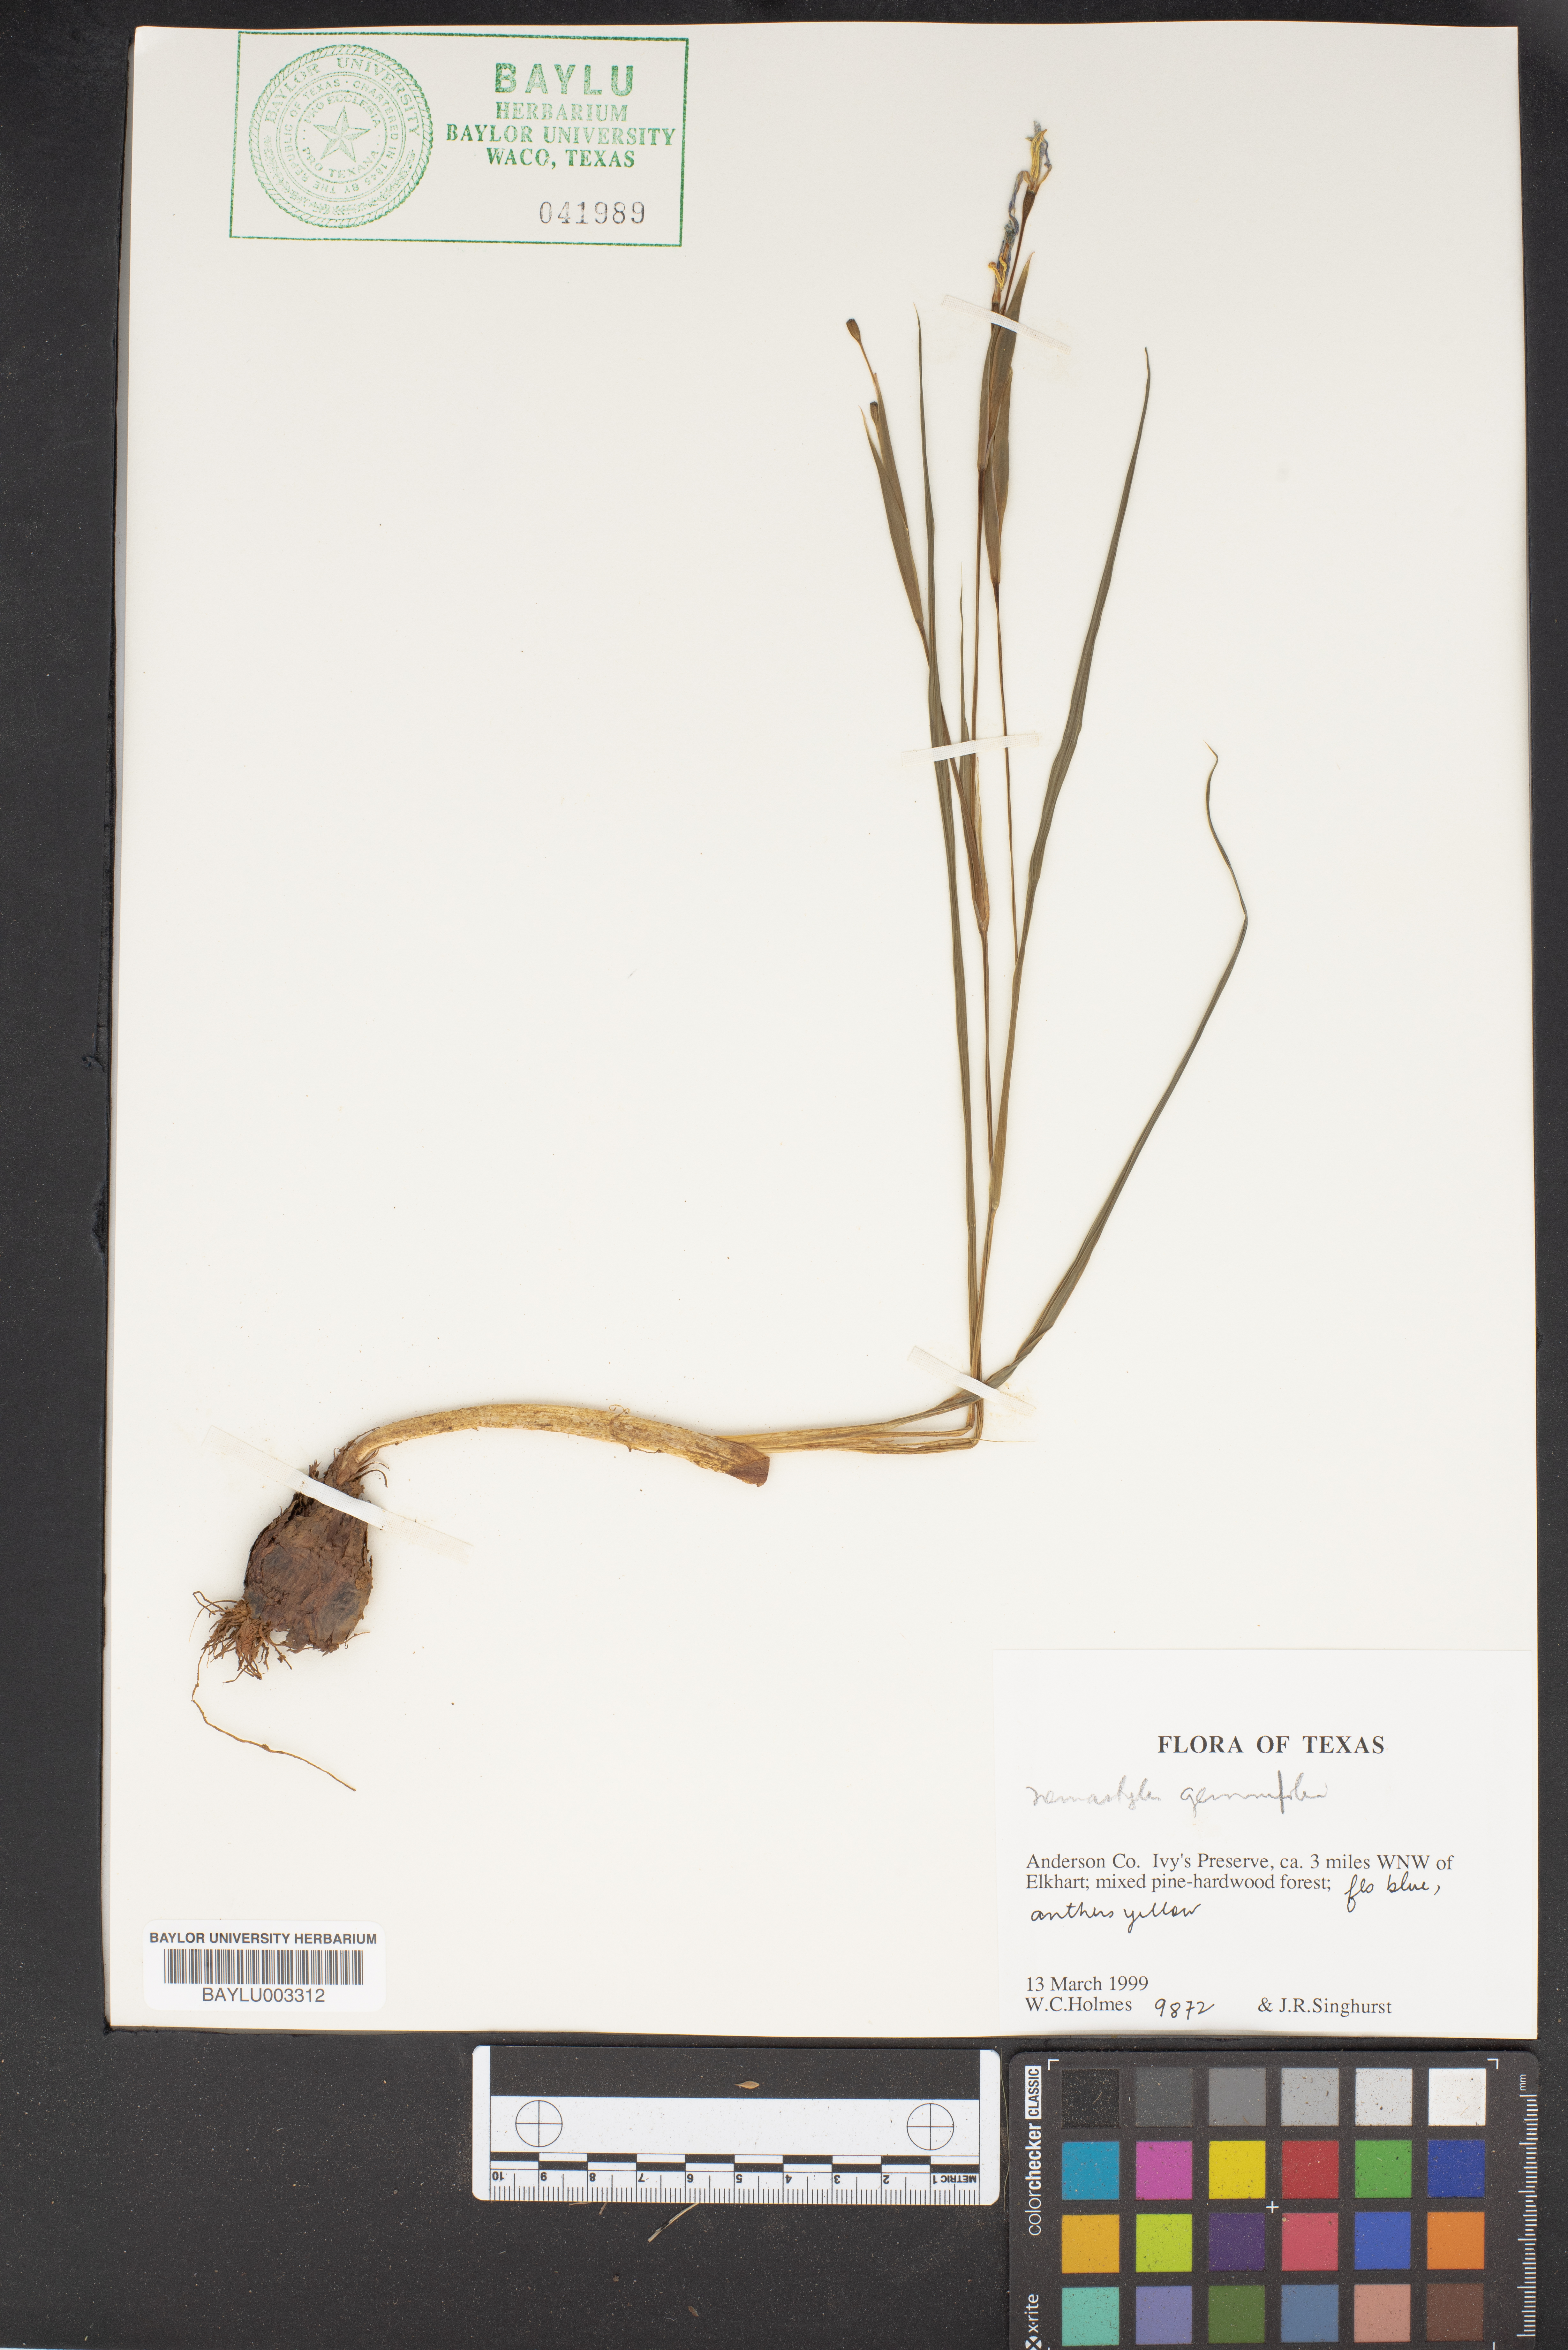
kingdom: Plantae
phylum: Tracheophyta
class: Liliopsida
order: Liliales
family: Liliaceae
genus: Erythronium
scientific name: Erythronium grandiflorum
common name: Avalanche-lily
